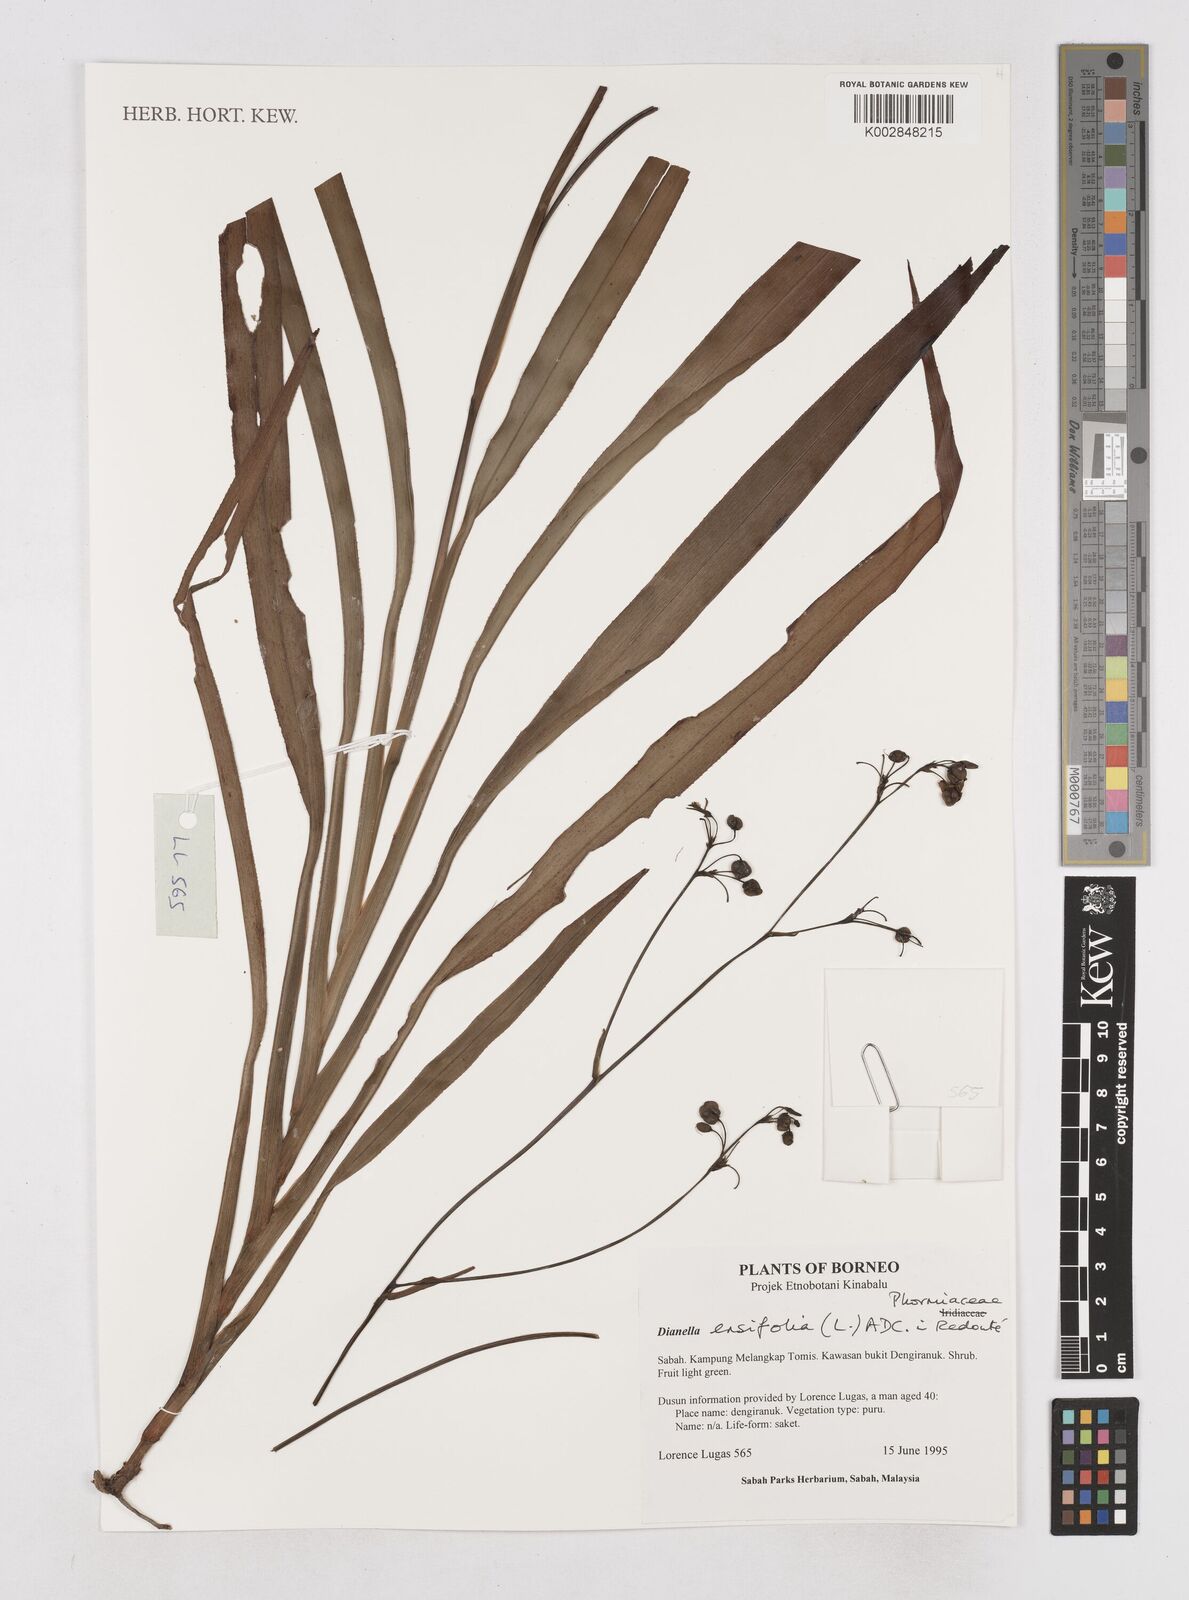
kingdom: Plantae
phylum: Tracheophyta
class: Liliopsida
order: Asparagales
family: Asphodelaceae
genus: Dianella
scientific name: Dianella ensifolia
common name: New zealand lilyplant
